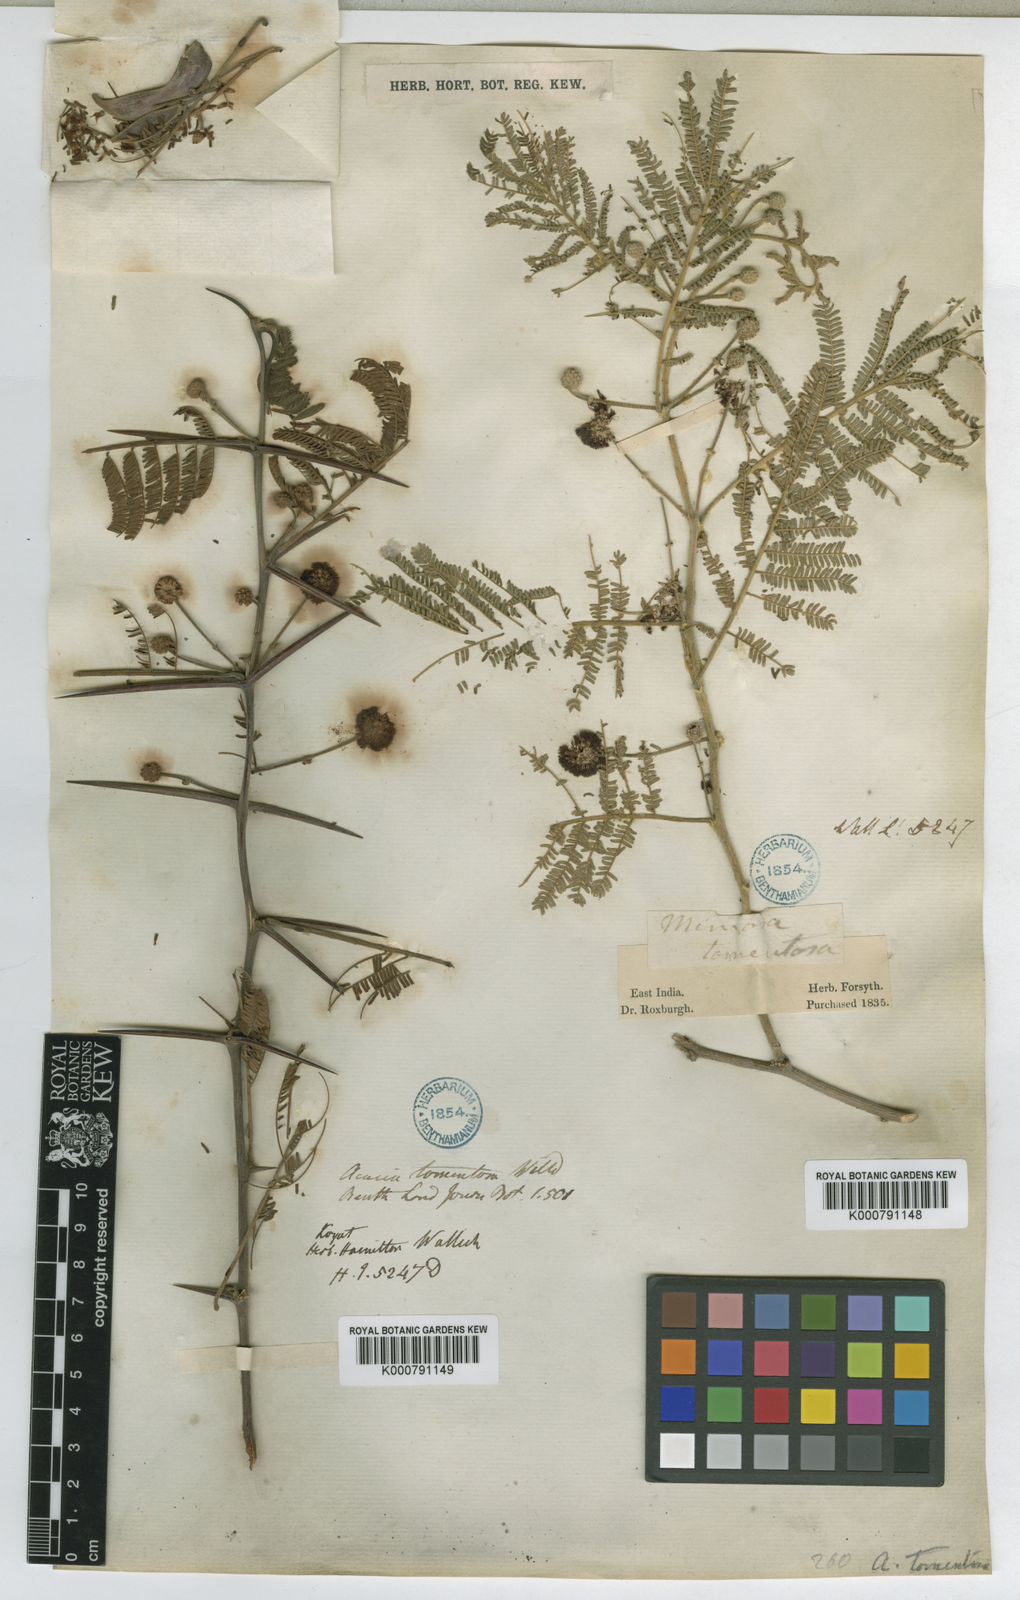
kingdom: Plantae
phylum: Tracheophyta
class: Magnoliopsida
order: Fabales
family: Fabaceae
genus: Vachellia
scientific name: Vachellia tomentosa
